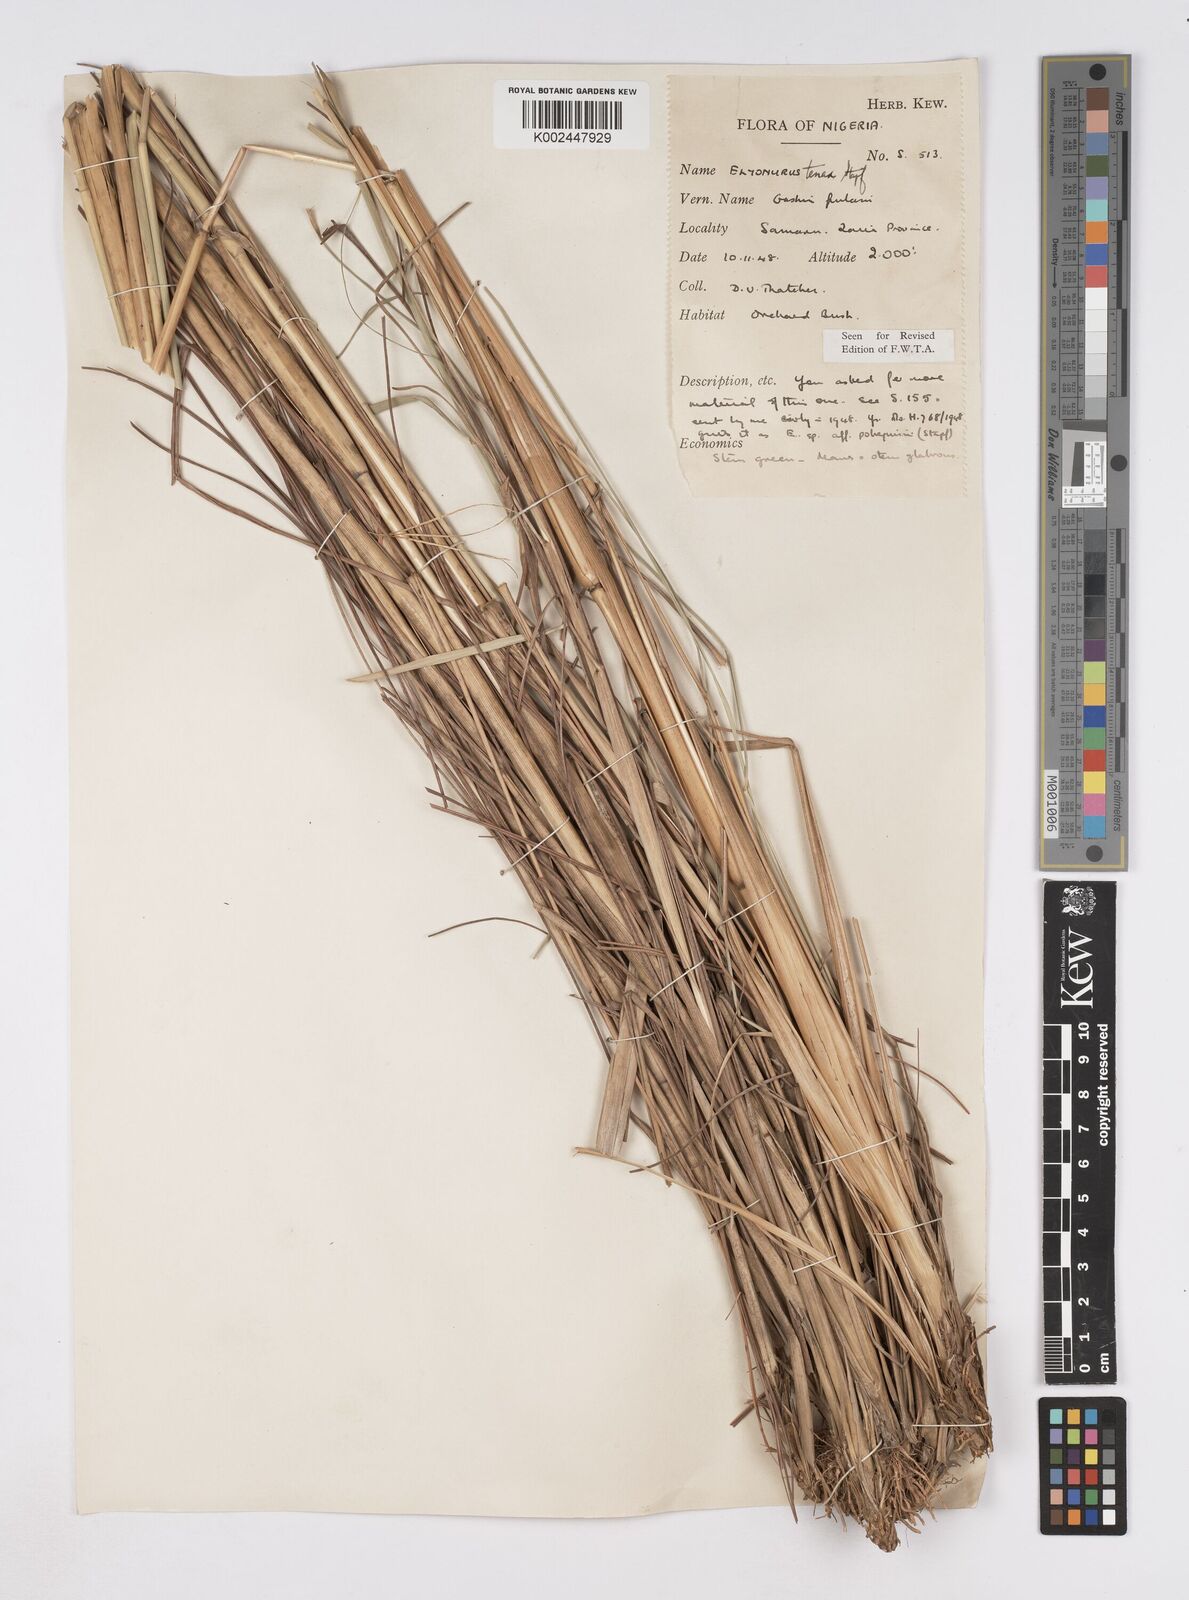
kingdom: Plantae
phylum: Tracheophyta
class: Liliopsida
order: Poales
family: Poaceae
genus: Elionurus
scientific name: Elionurus
